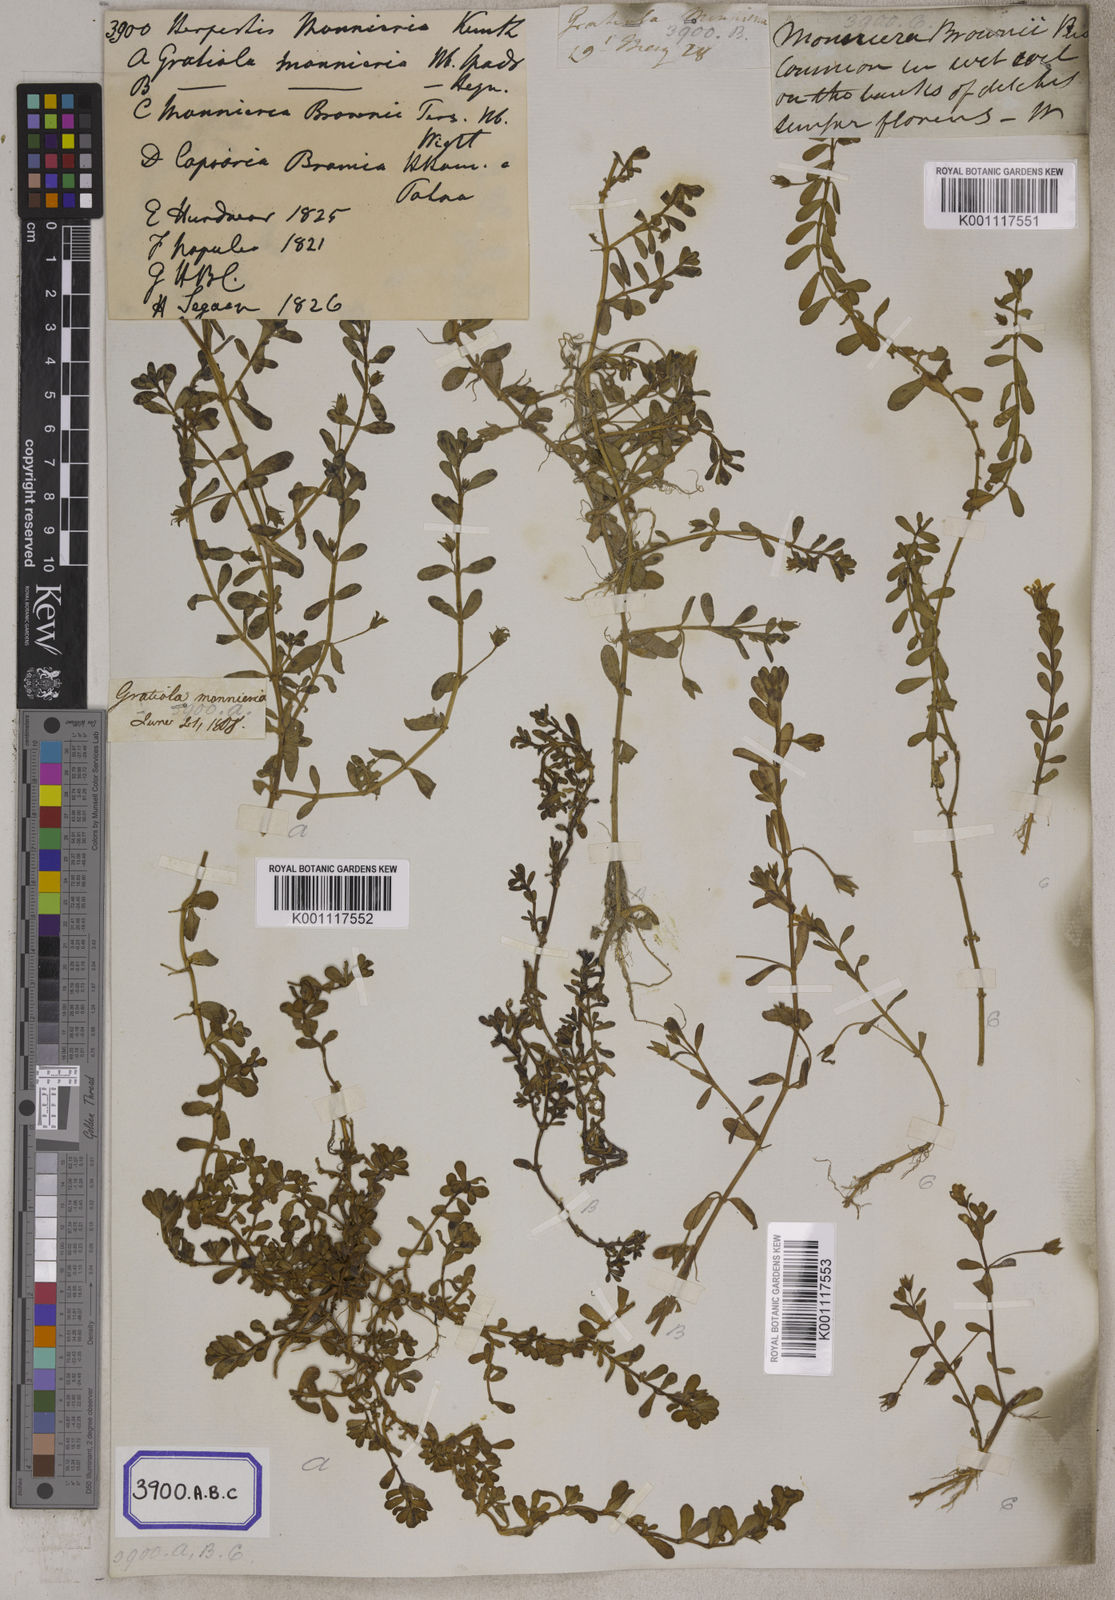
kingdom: Plantae
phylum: Tracheophyta
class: Magnoliopsida
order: Lamiales
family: Plantaginaceae
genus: Bacopa
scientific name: Bacopa monnieri
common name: Indian-pennywort
